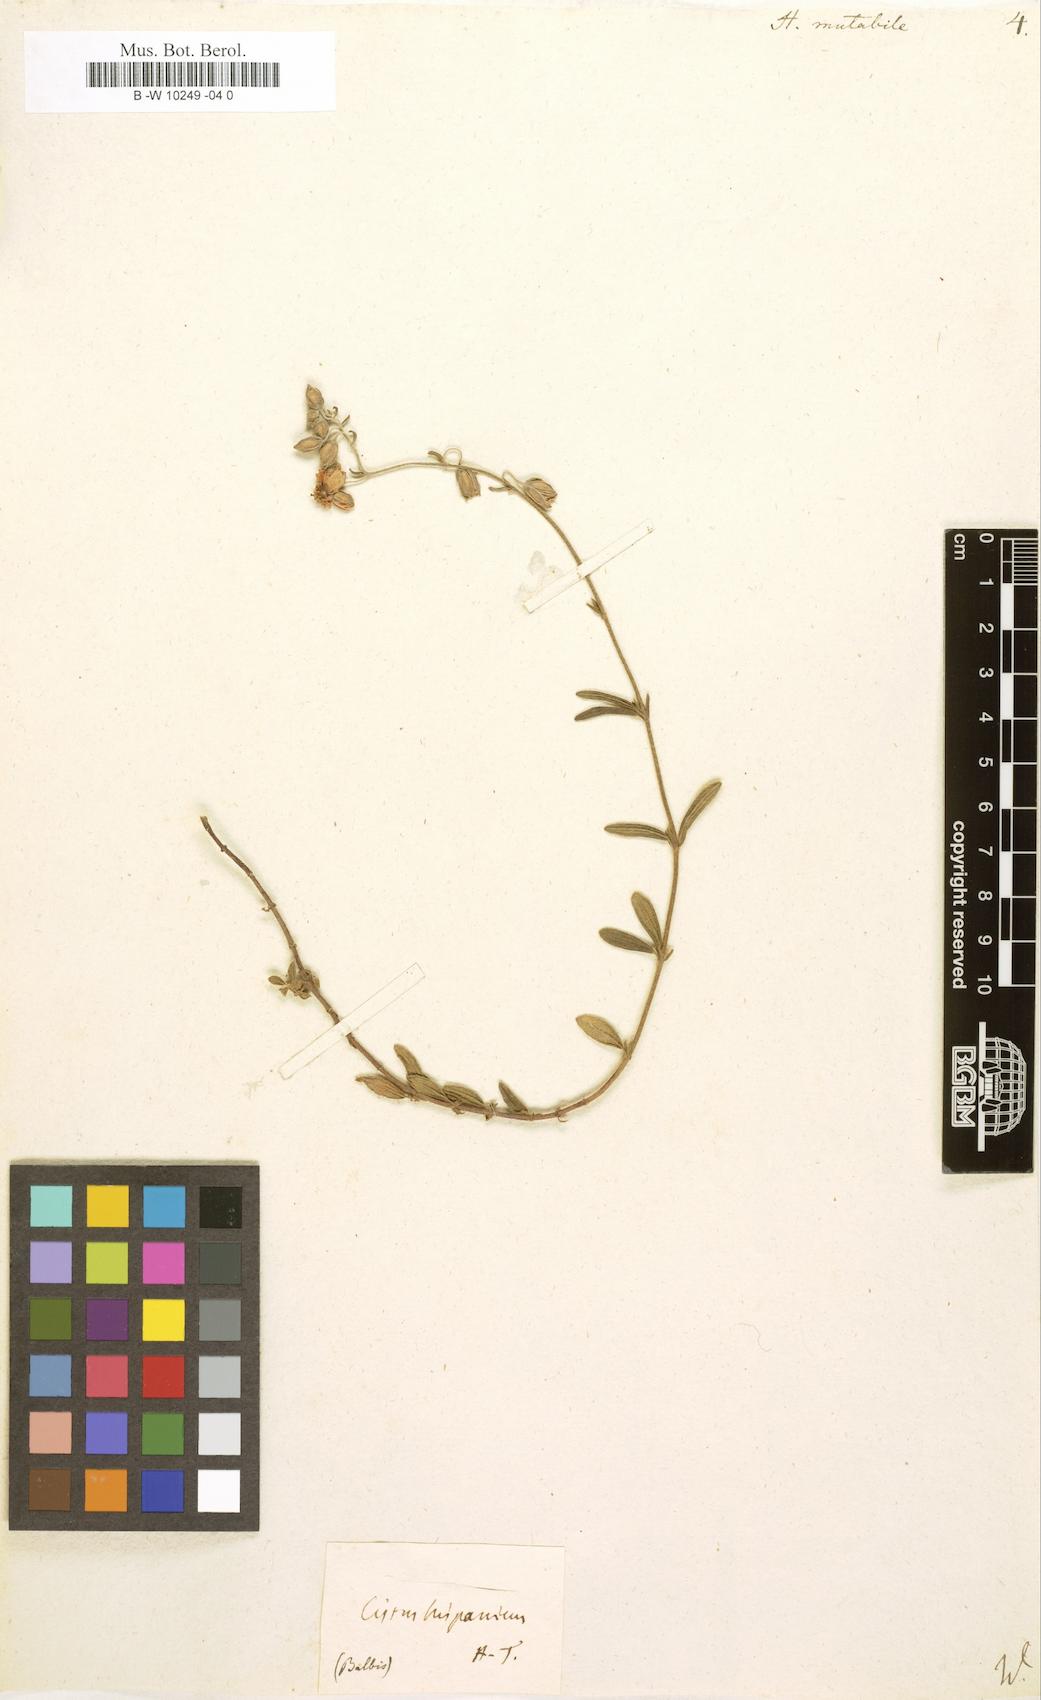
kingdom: Plantae
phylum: Tracheophyta
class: Magnoliopsida
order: Malvales
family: Cistaceae
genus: Helianthemum
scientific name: Helianthemum nummularium
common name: Common rock-rose
